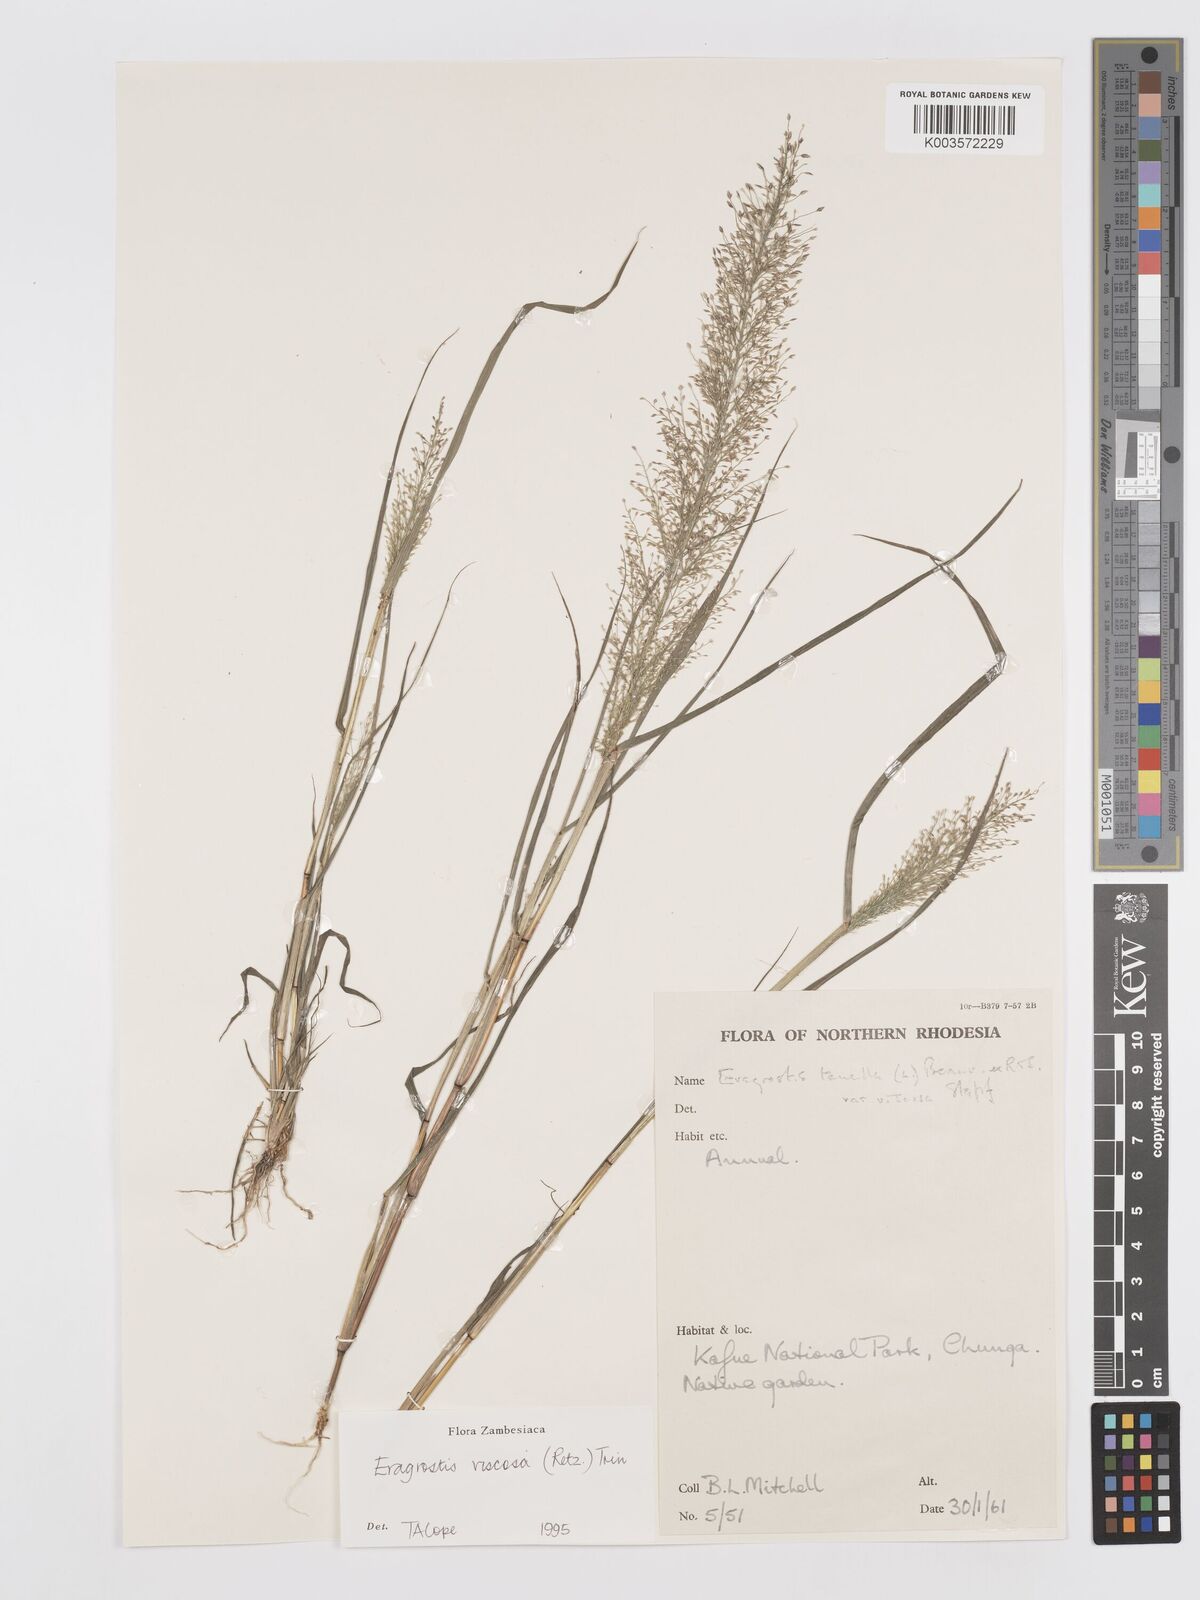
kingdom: Plantae
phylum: Tracheophyta
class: Liliopsida
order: Poales
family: Poaceae
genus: Eragrostis
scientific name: Eragrostis
